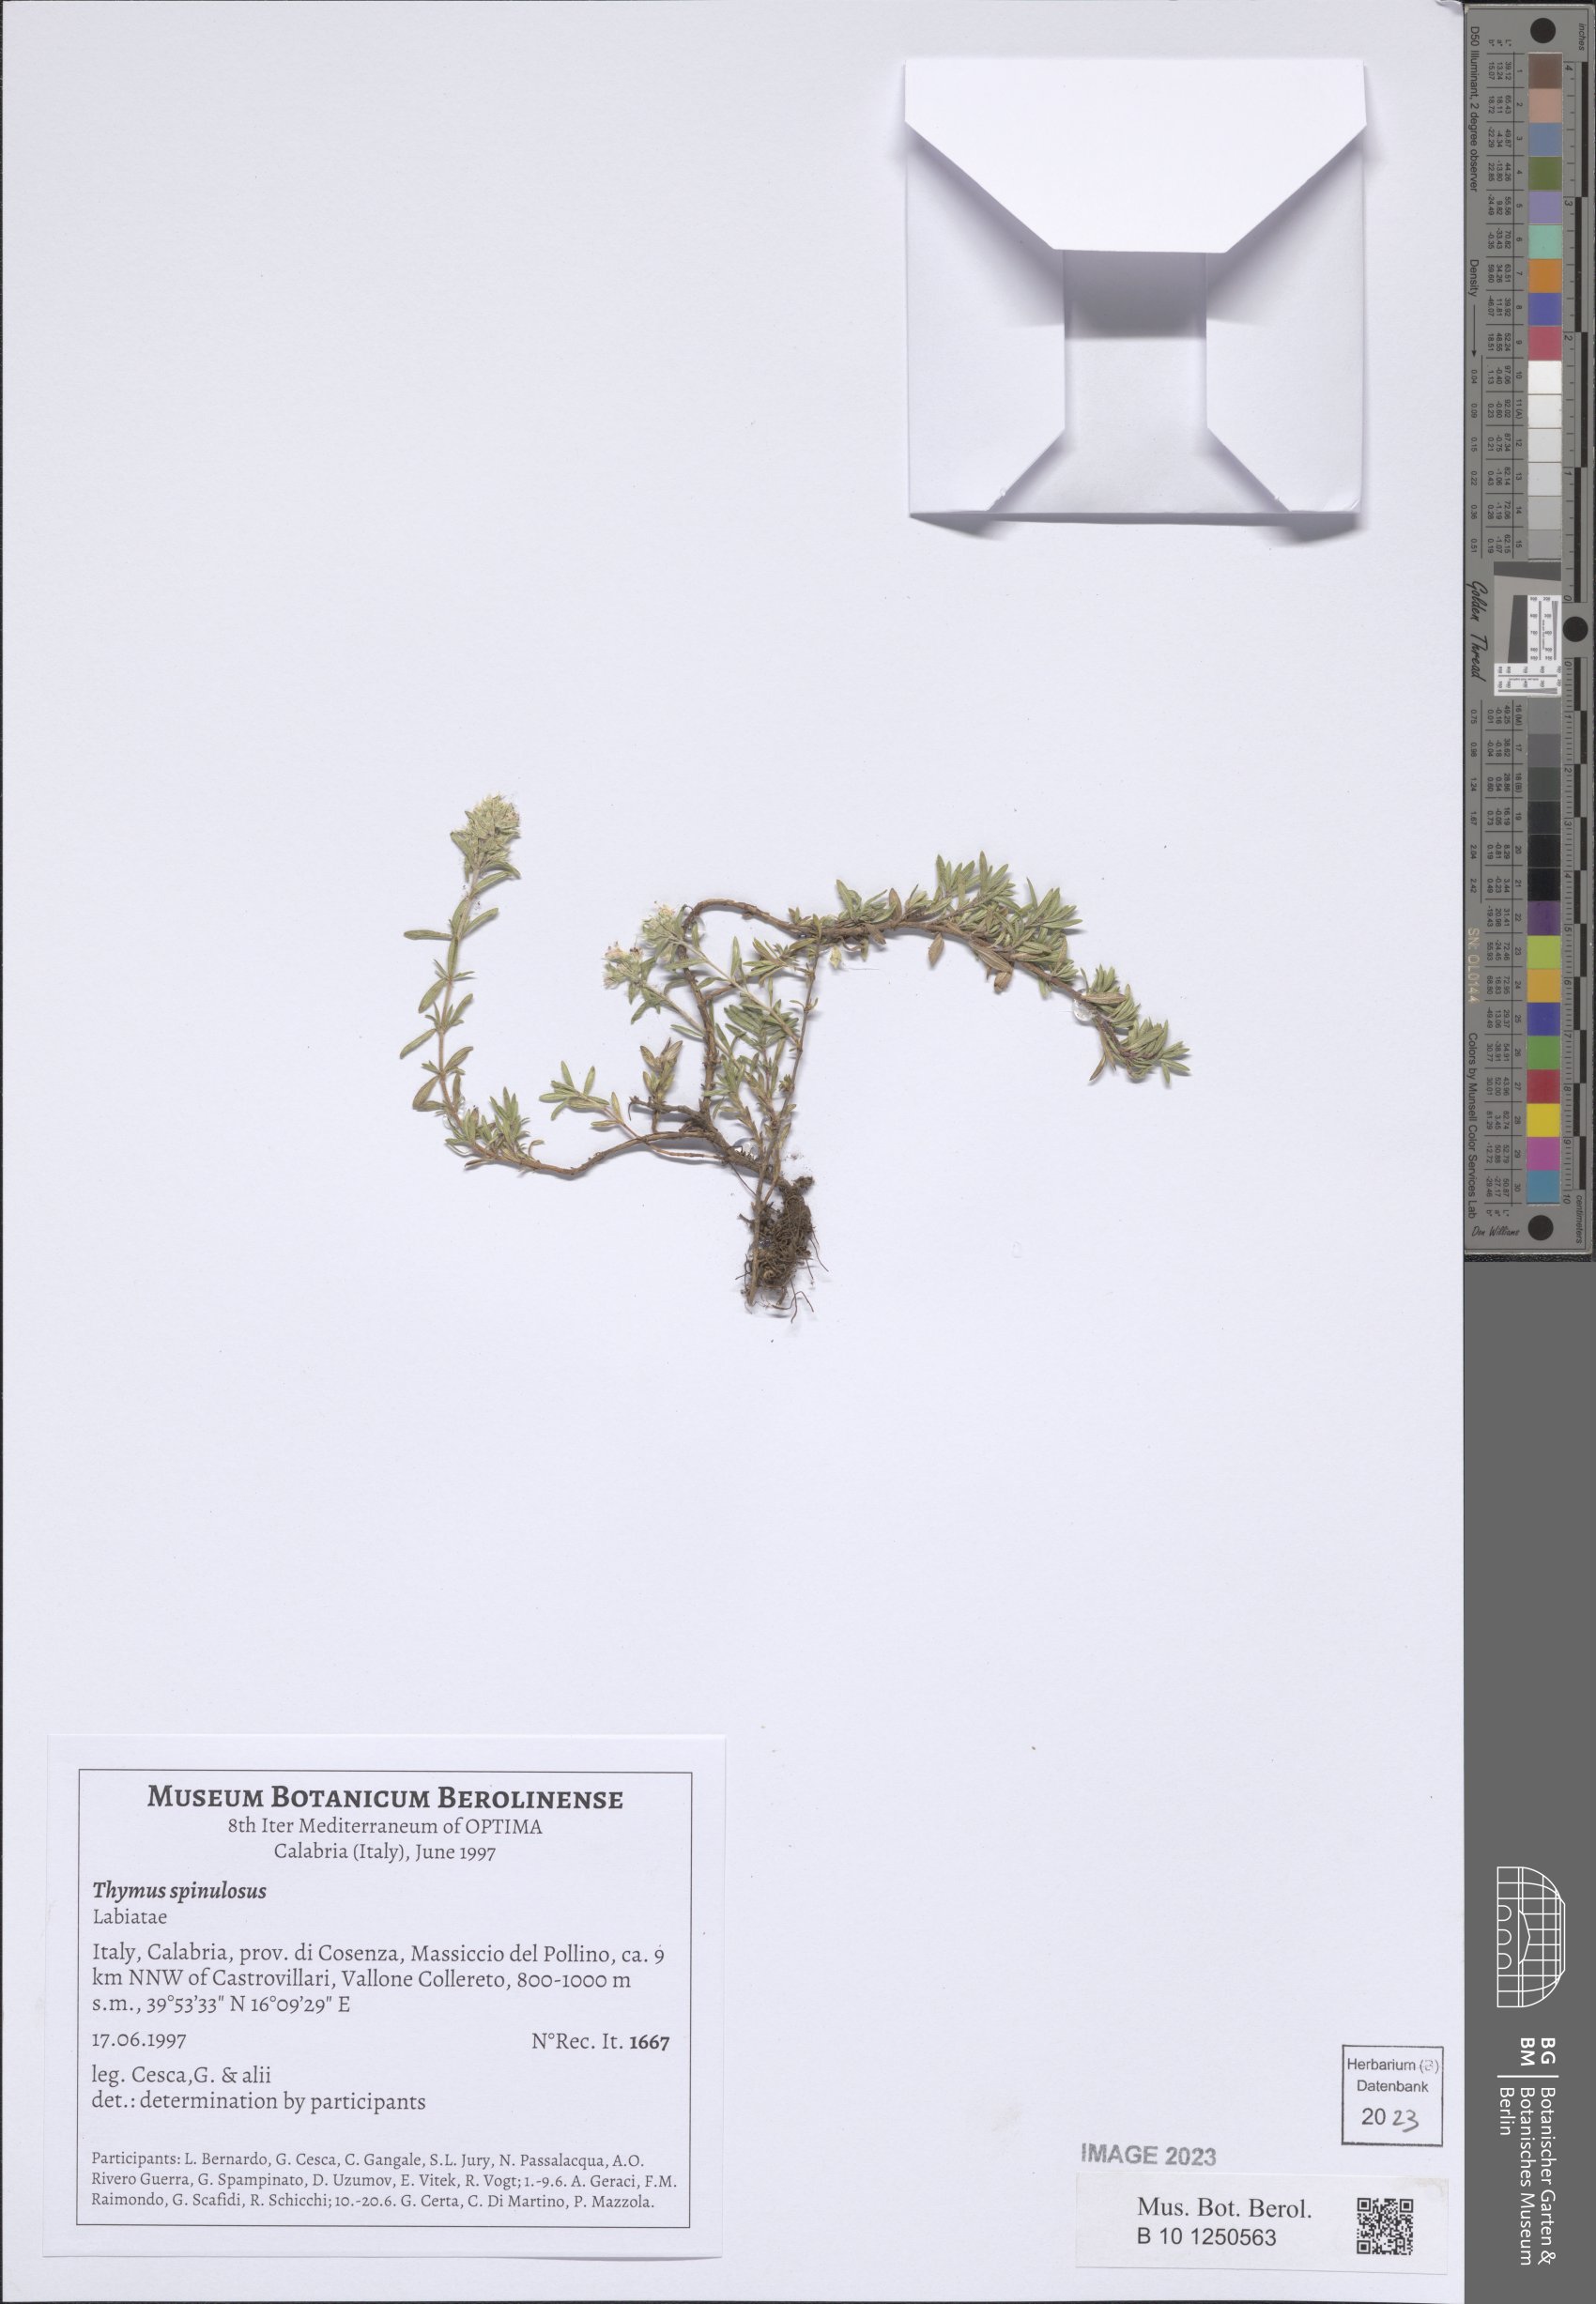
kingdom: Plantae
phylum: Tracheophyta
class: Magnoliopsida
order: Lamiales
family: Lamiaceae
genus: Thymus
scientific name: Thymus spinulosus
